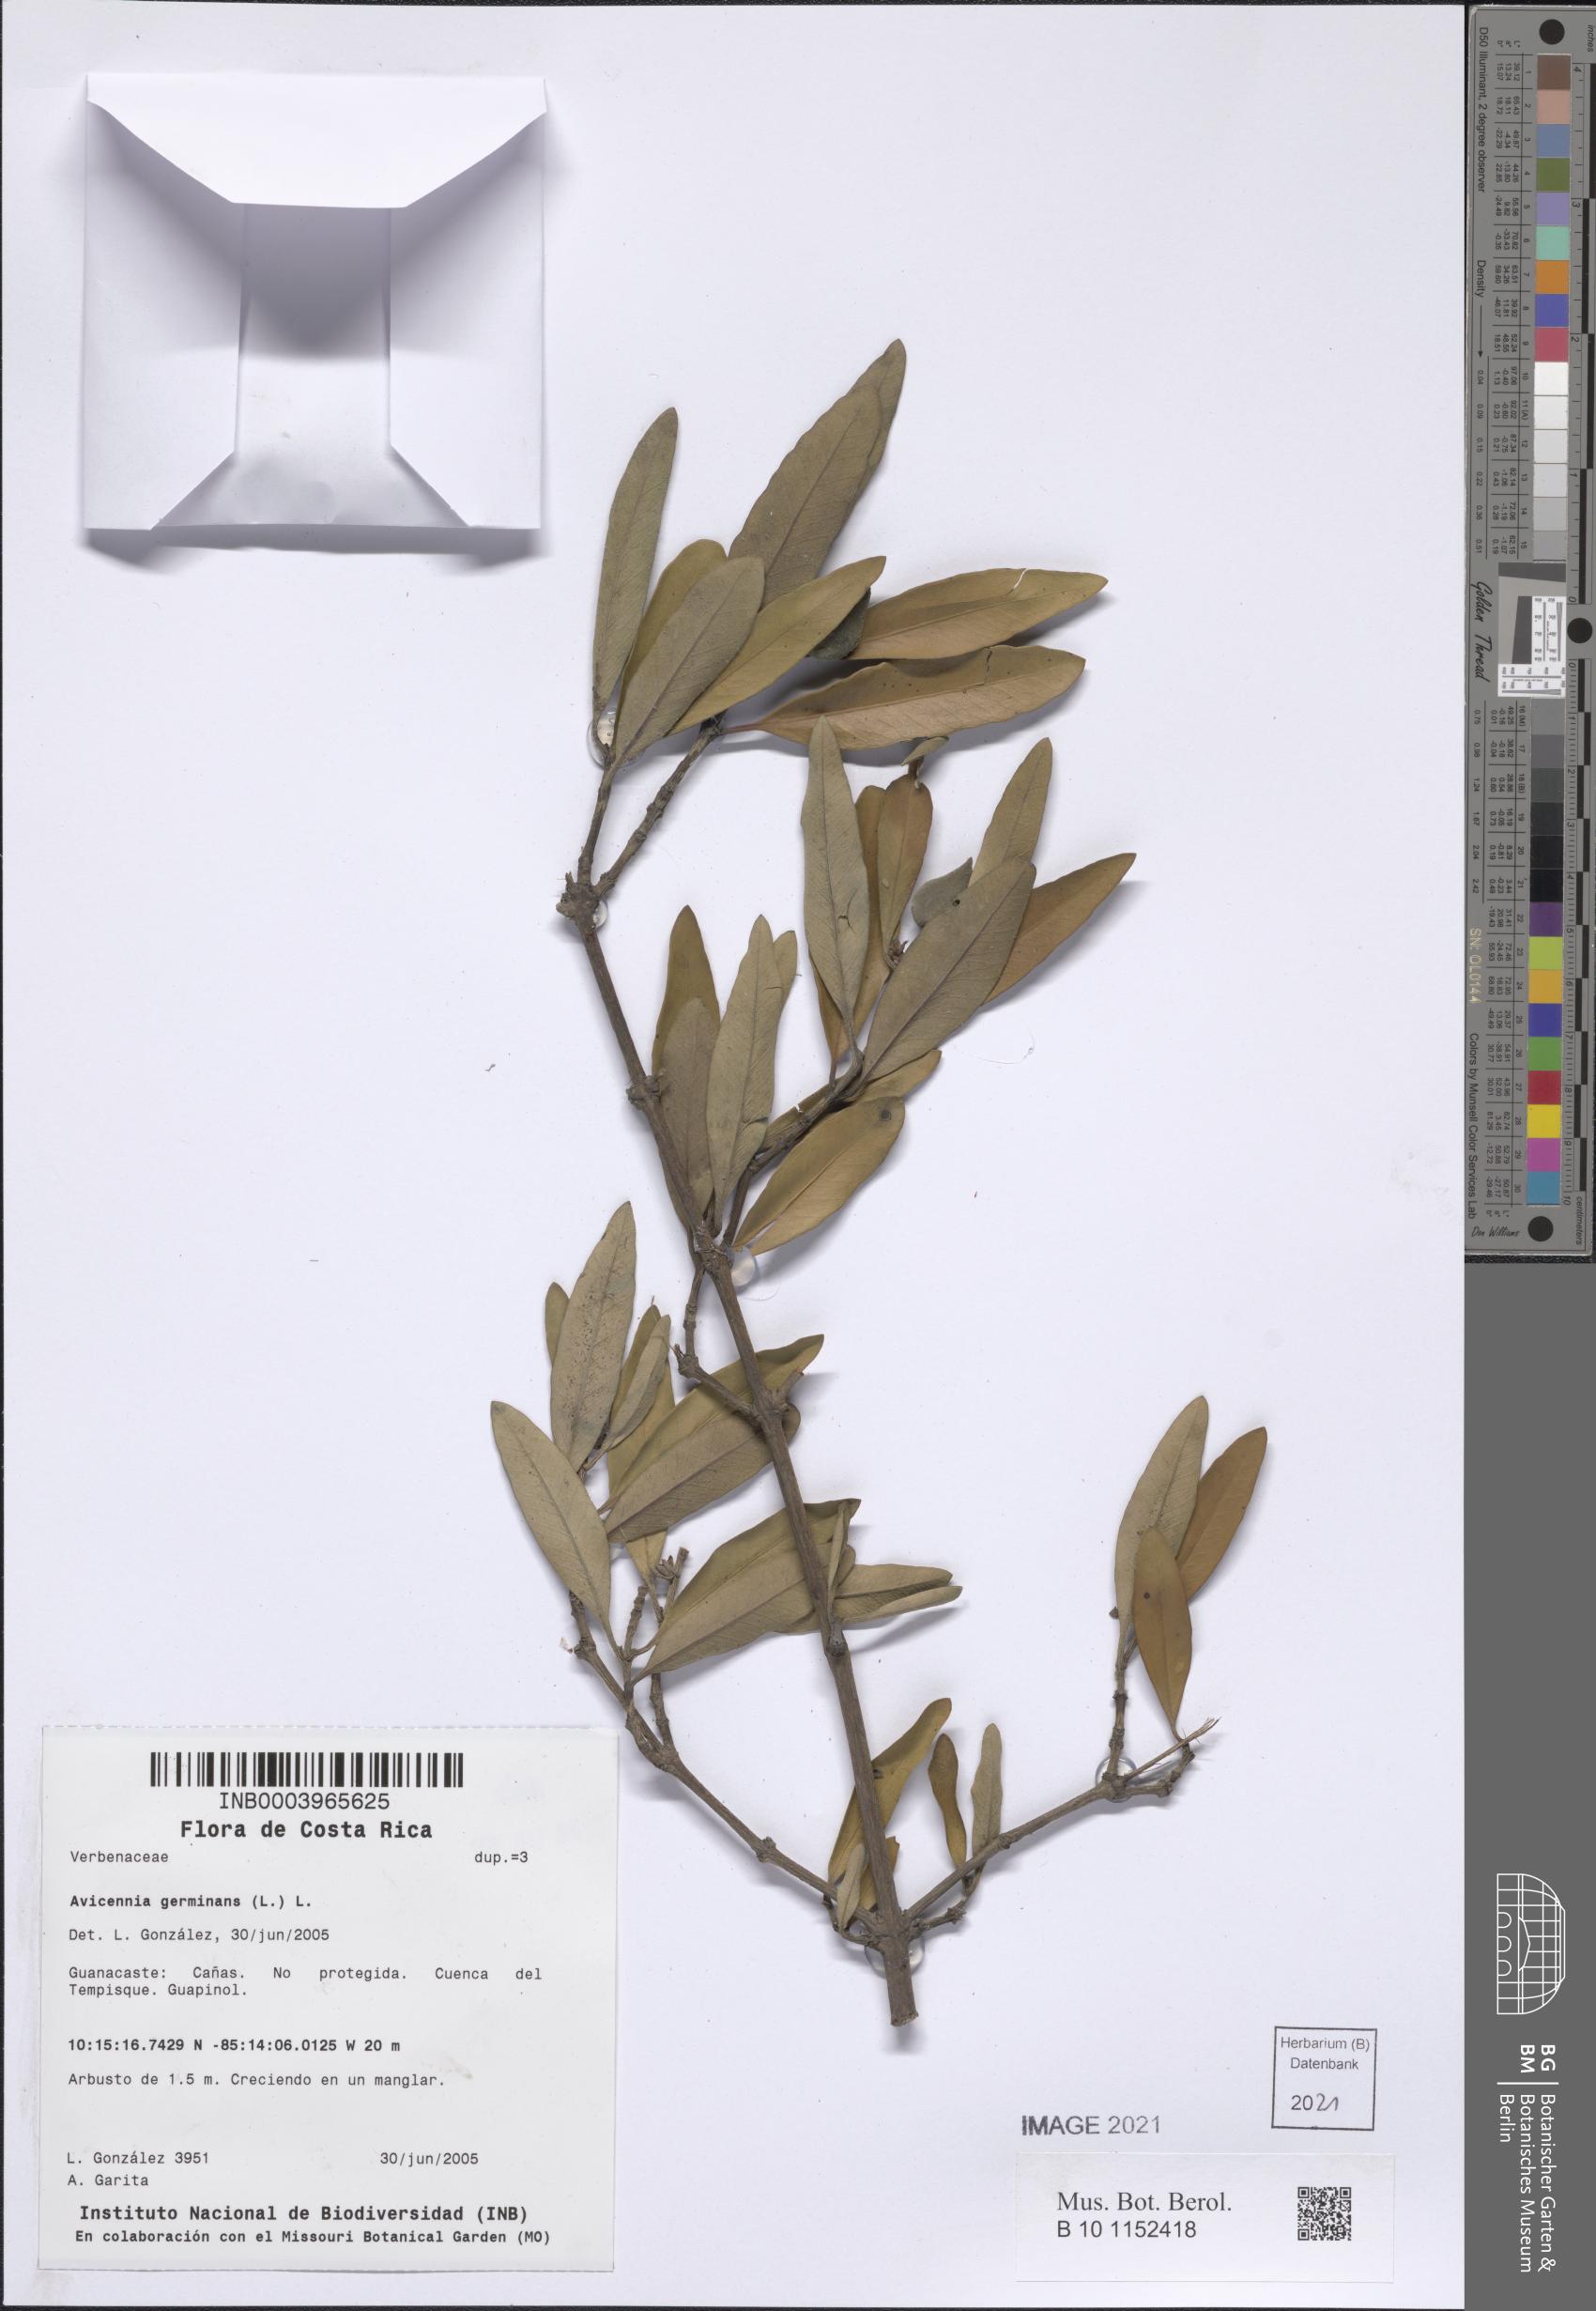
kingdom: Plantae
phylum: Tracheophyta
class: Magnoliopsida
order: Lamiales
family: Acanthaceae
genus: Avicennia
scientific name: Avicennia germinans
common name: Black mangrove
